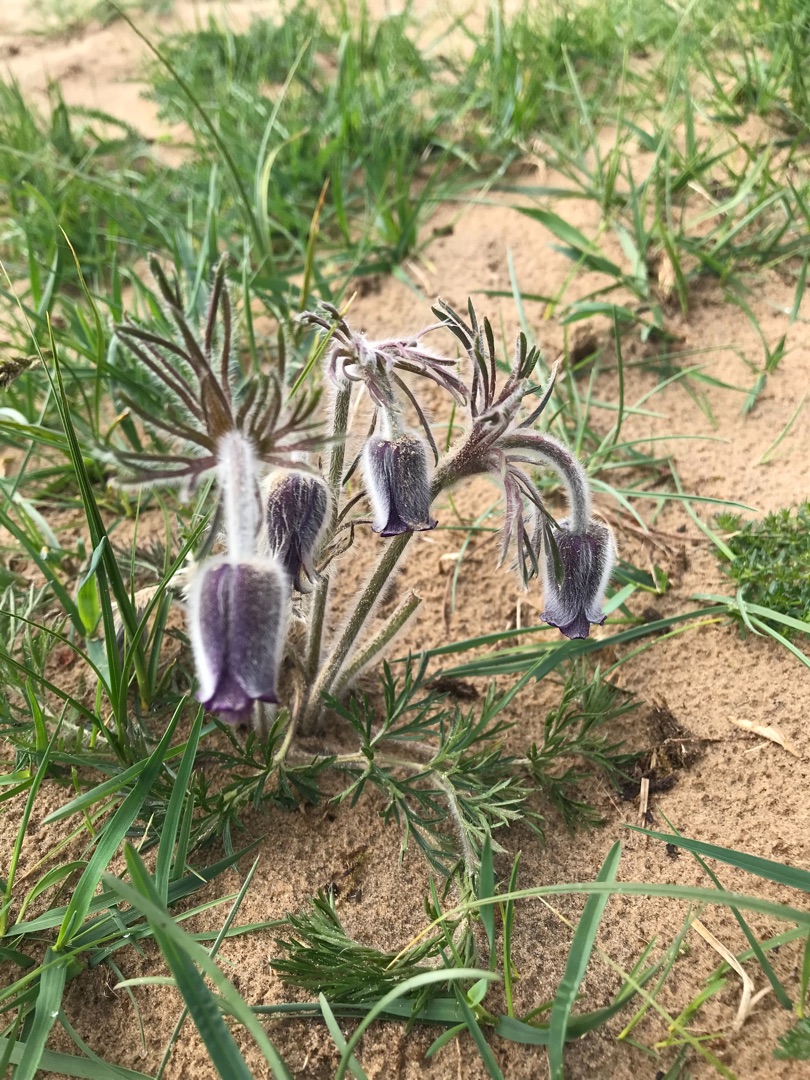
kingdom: Plantae
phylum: Tracheophyta
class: Magnoliopsida
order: Ranunculales
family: Ranunculaceae
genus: Pulsatilla
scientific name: Pulsatilla pratensis
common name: Nikkende kobjælde
